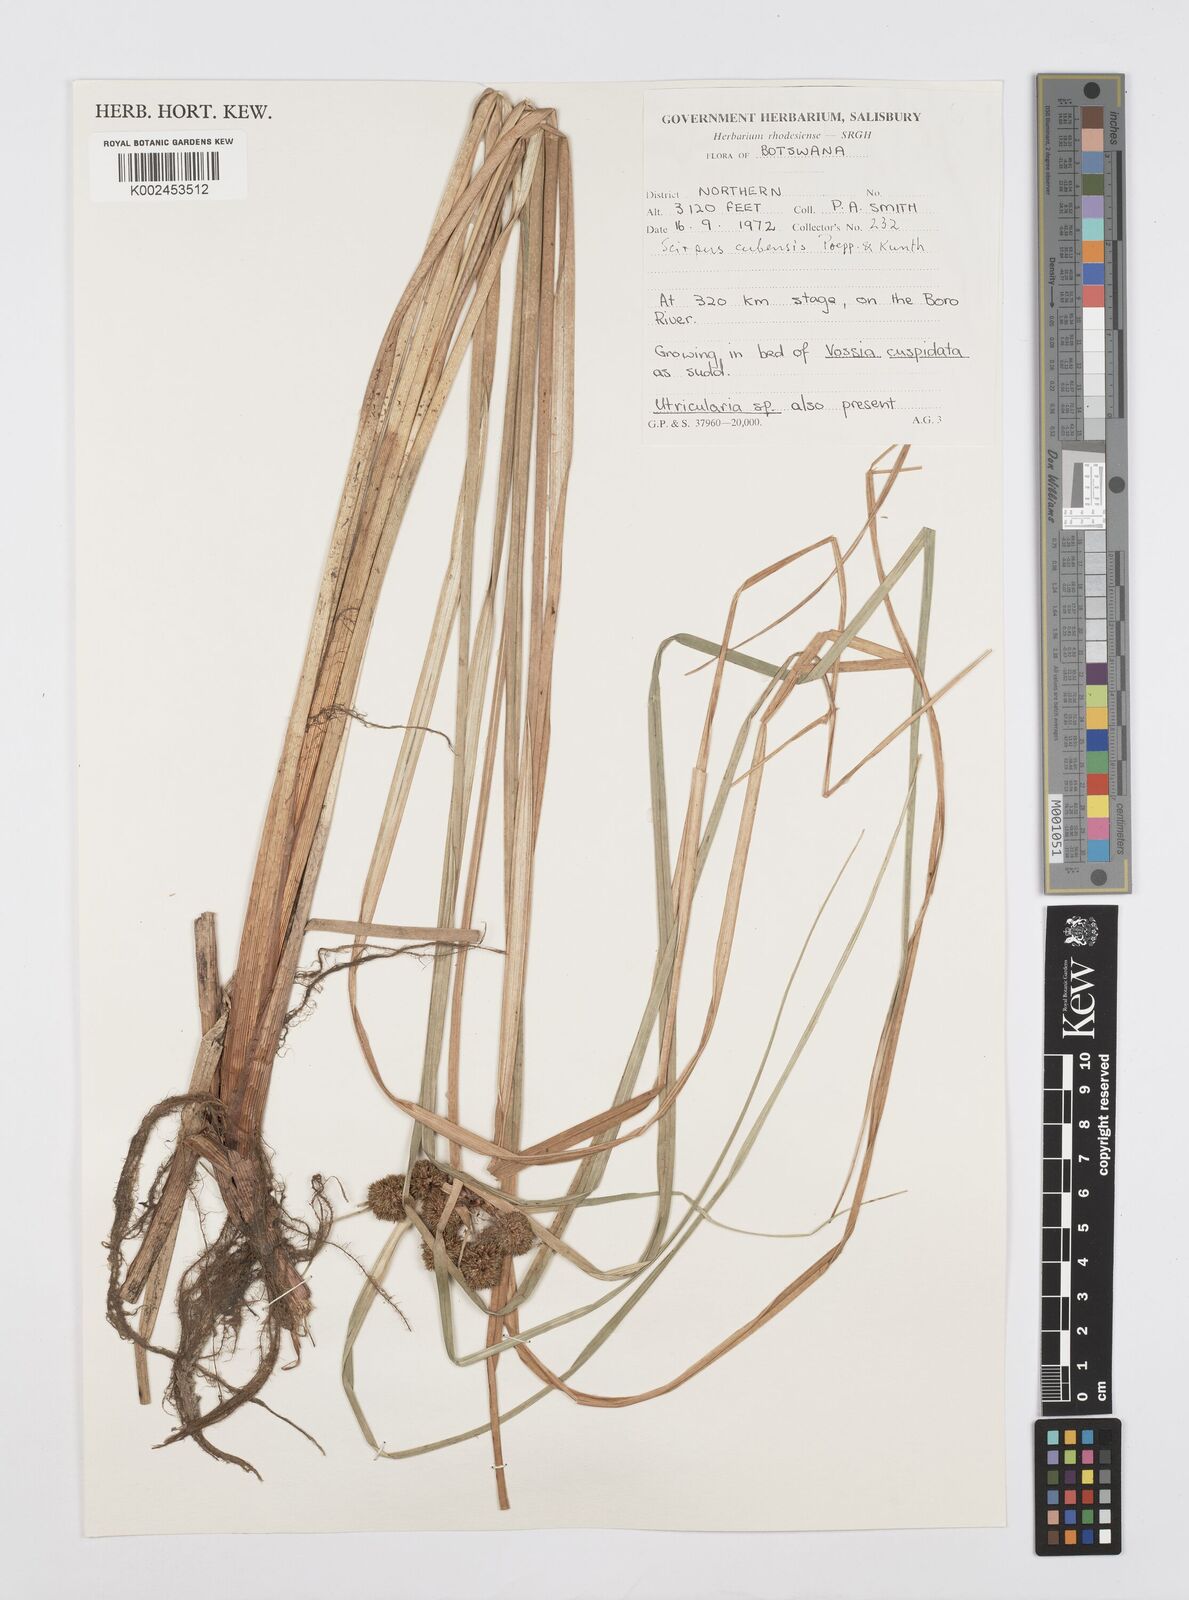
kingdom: Plantae
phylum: Tracheophyta
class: Liliopsida
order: Poales
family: Cyperaceae
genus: Cyperus
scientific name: Cyperus elegans
